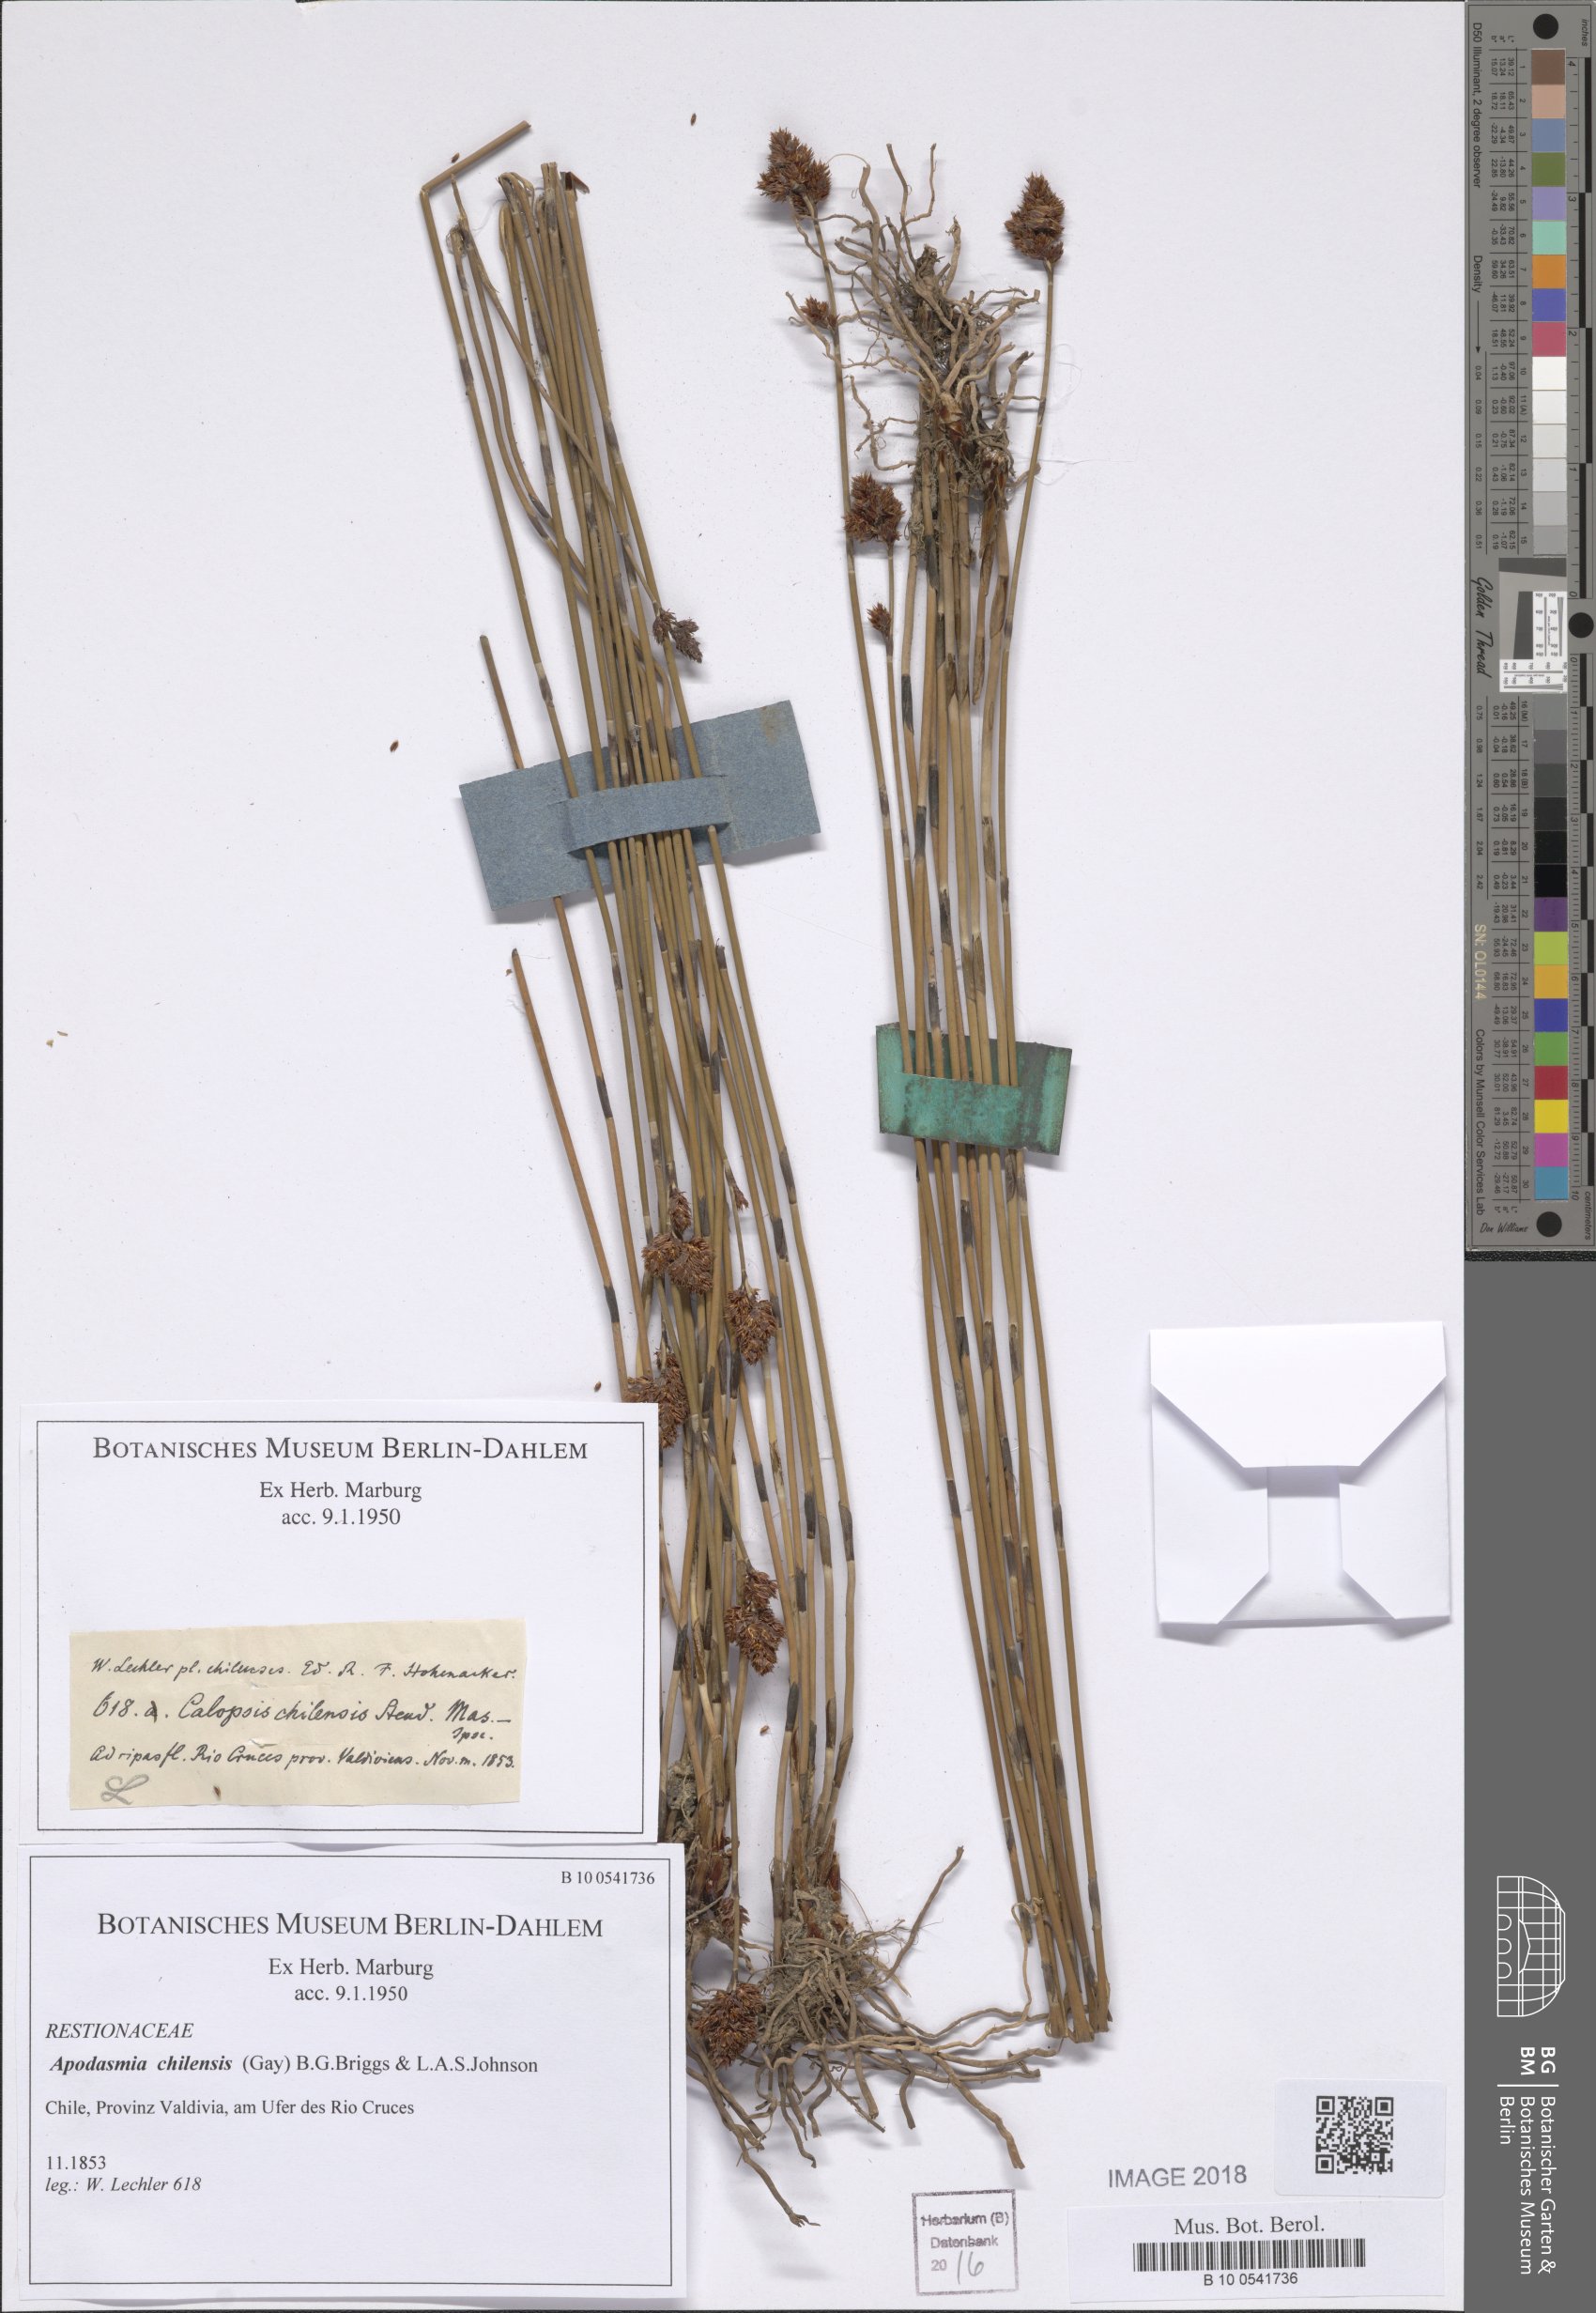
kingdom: Plantae
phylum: Tracheophyta
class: Liliopsida
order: Poales
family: Restionaceae
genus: Apodasmia
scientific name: Apodasmia chilensis
